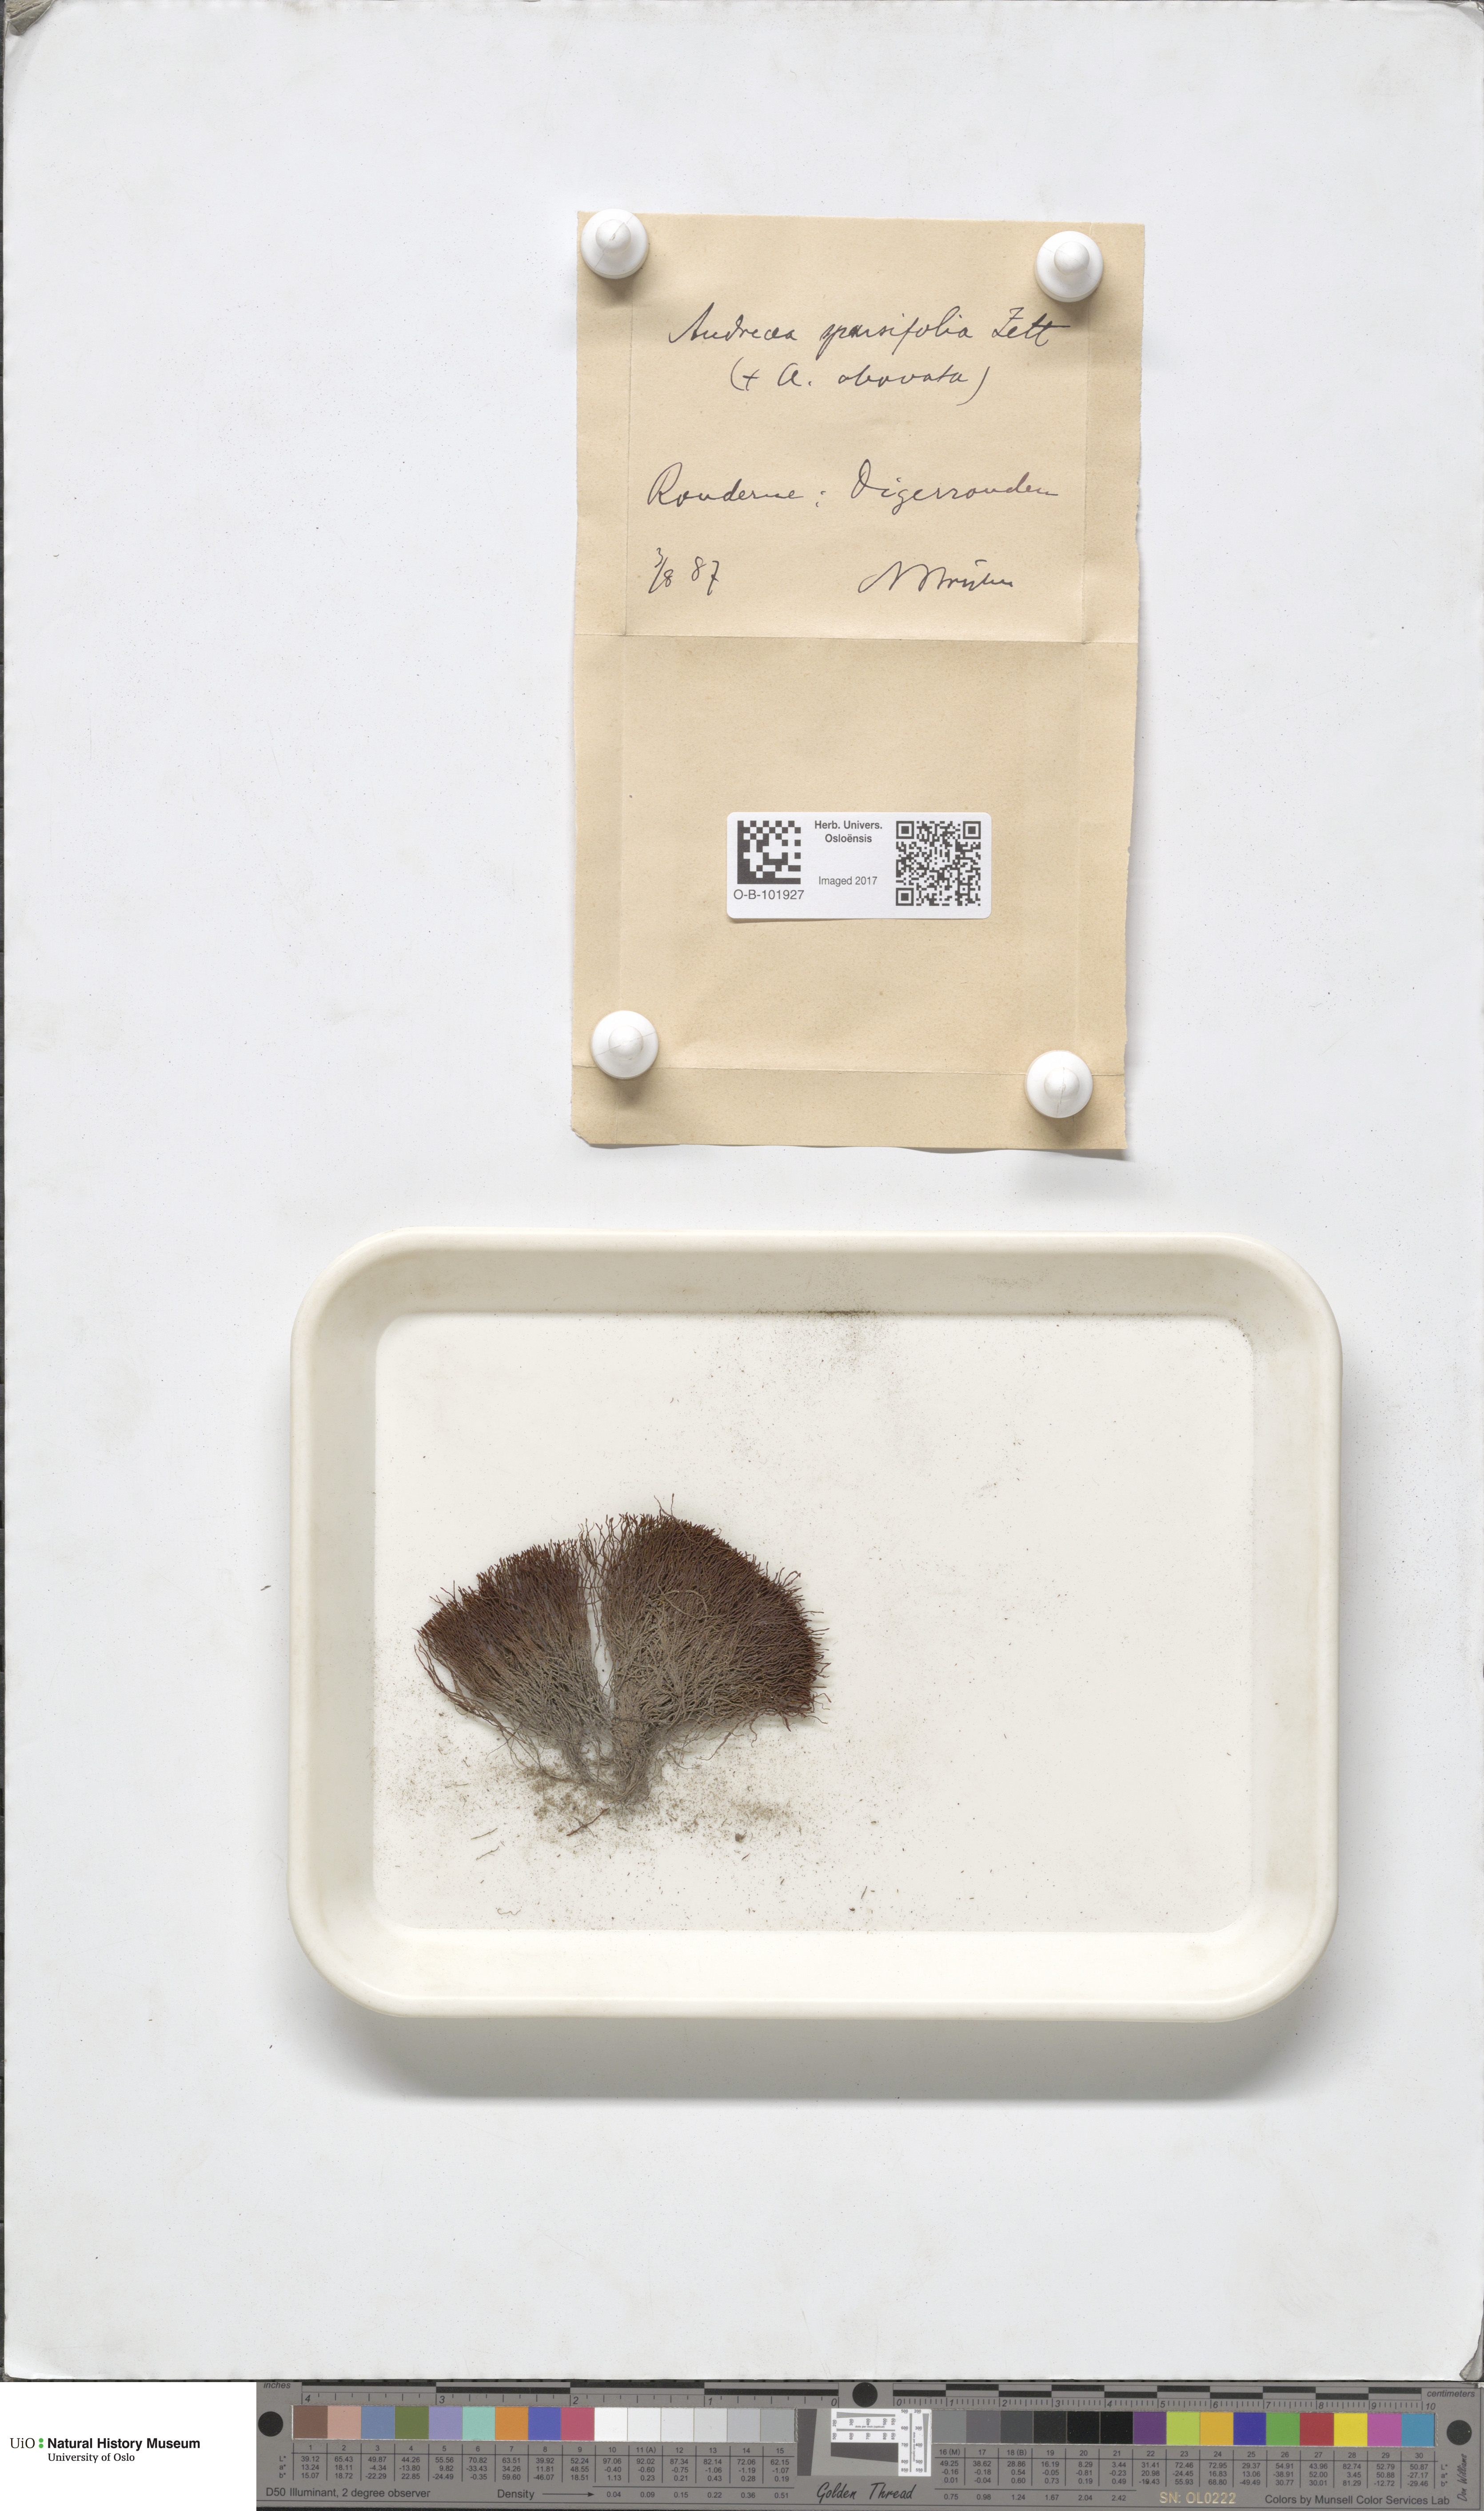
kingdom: Plantae
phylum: Bryophyta
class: Andreaeopsida
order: Andreaeales
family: Andreaeaceae
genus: Andreaea
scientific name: Andreaea rupestris
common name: Black rock moss
